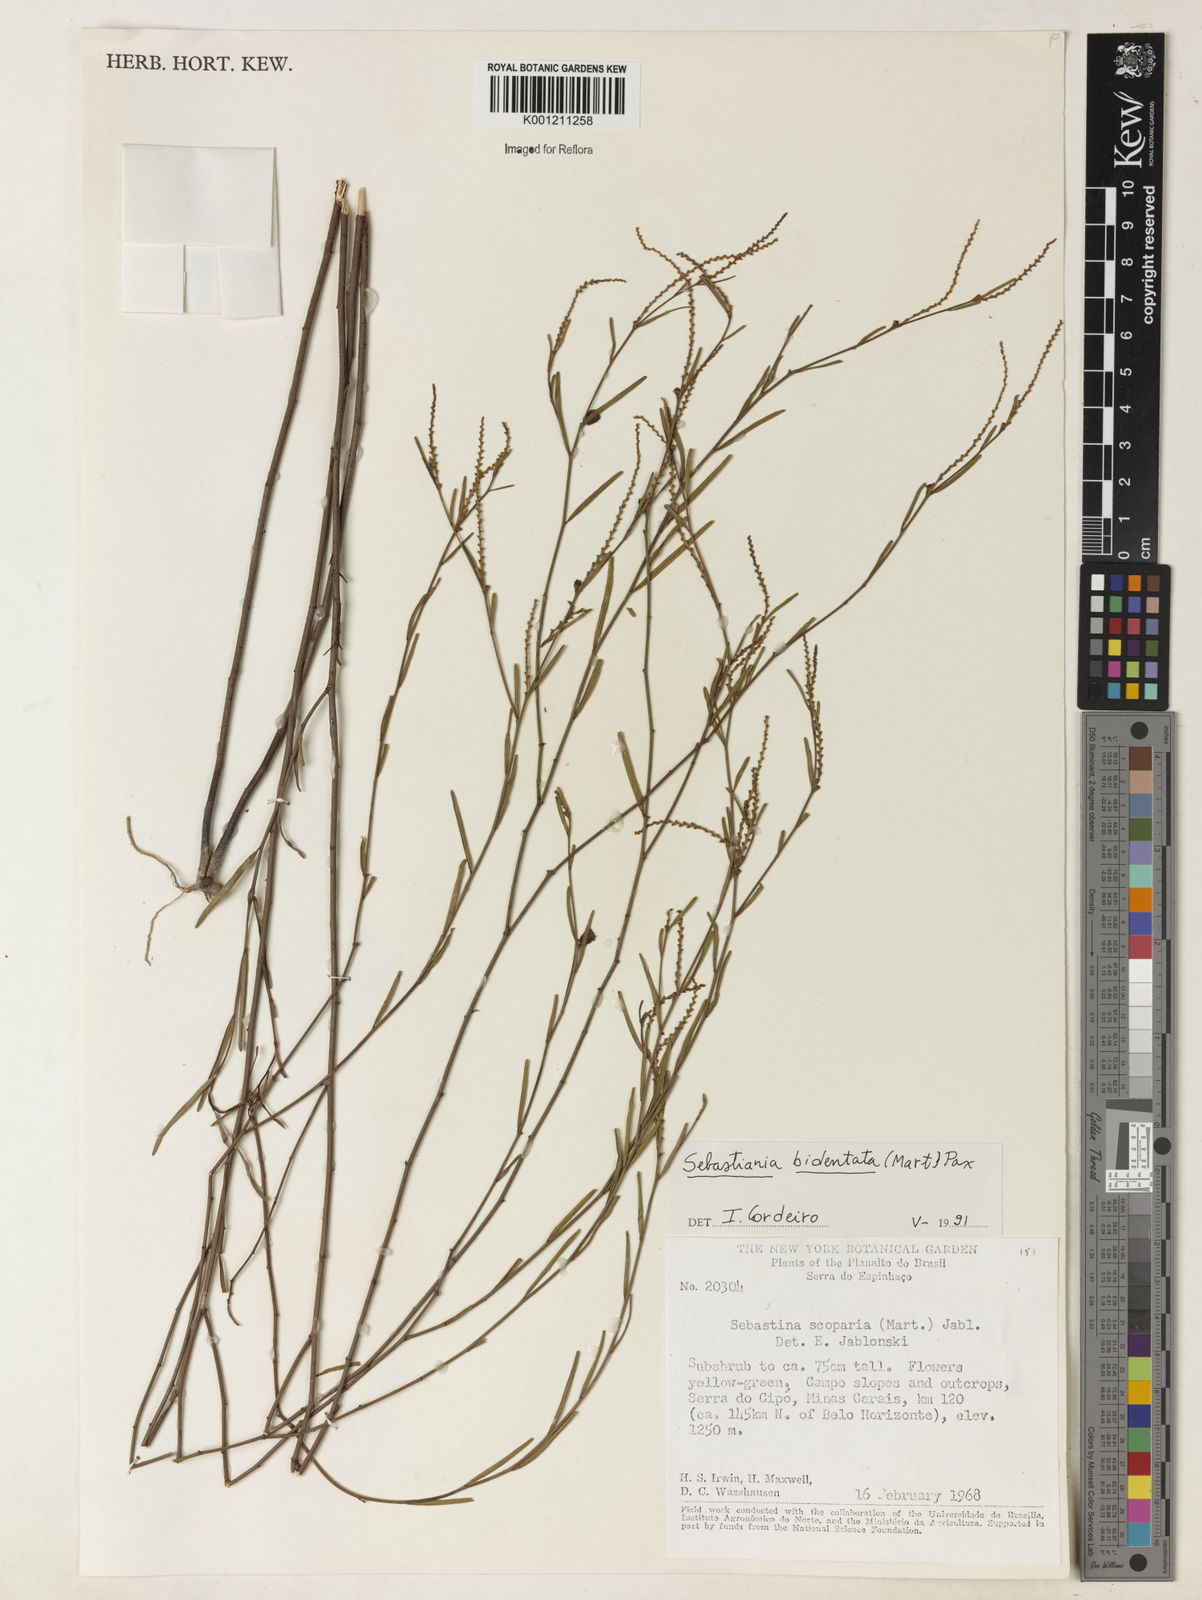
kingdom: Plantae
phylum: Tracheophyta
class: Magnoliopsida
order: Malpighiales
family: Euphorbiaceae
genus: Microstachys
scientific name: Microstachys bidentata
